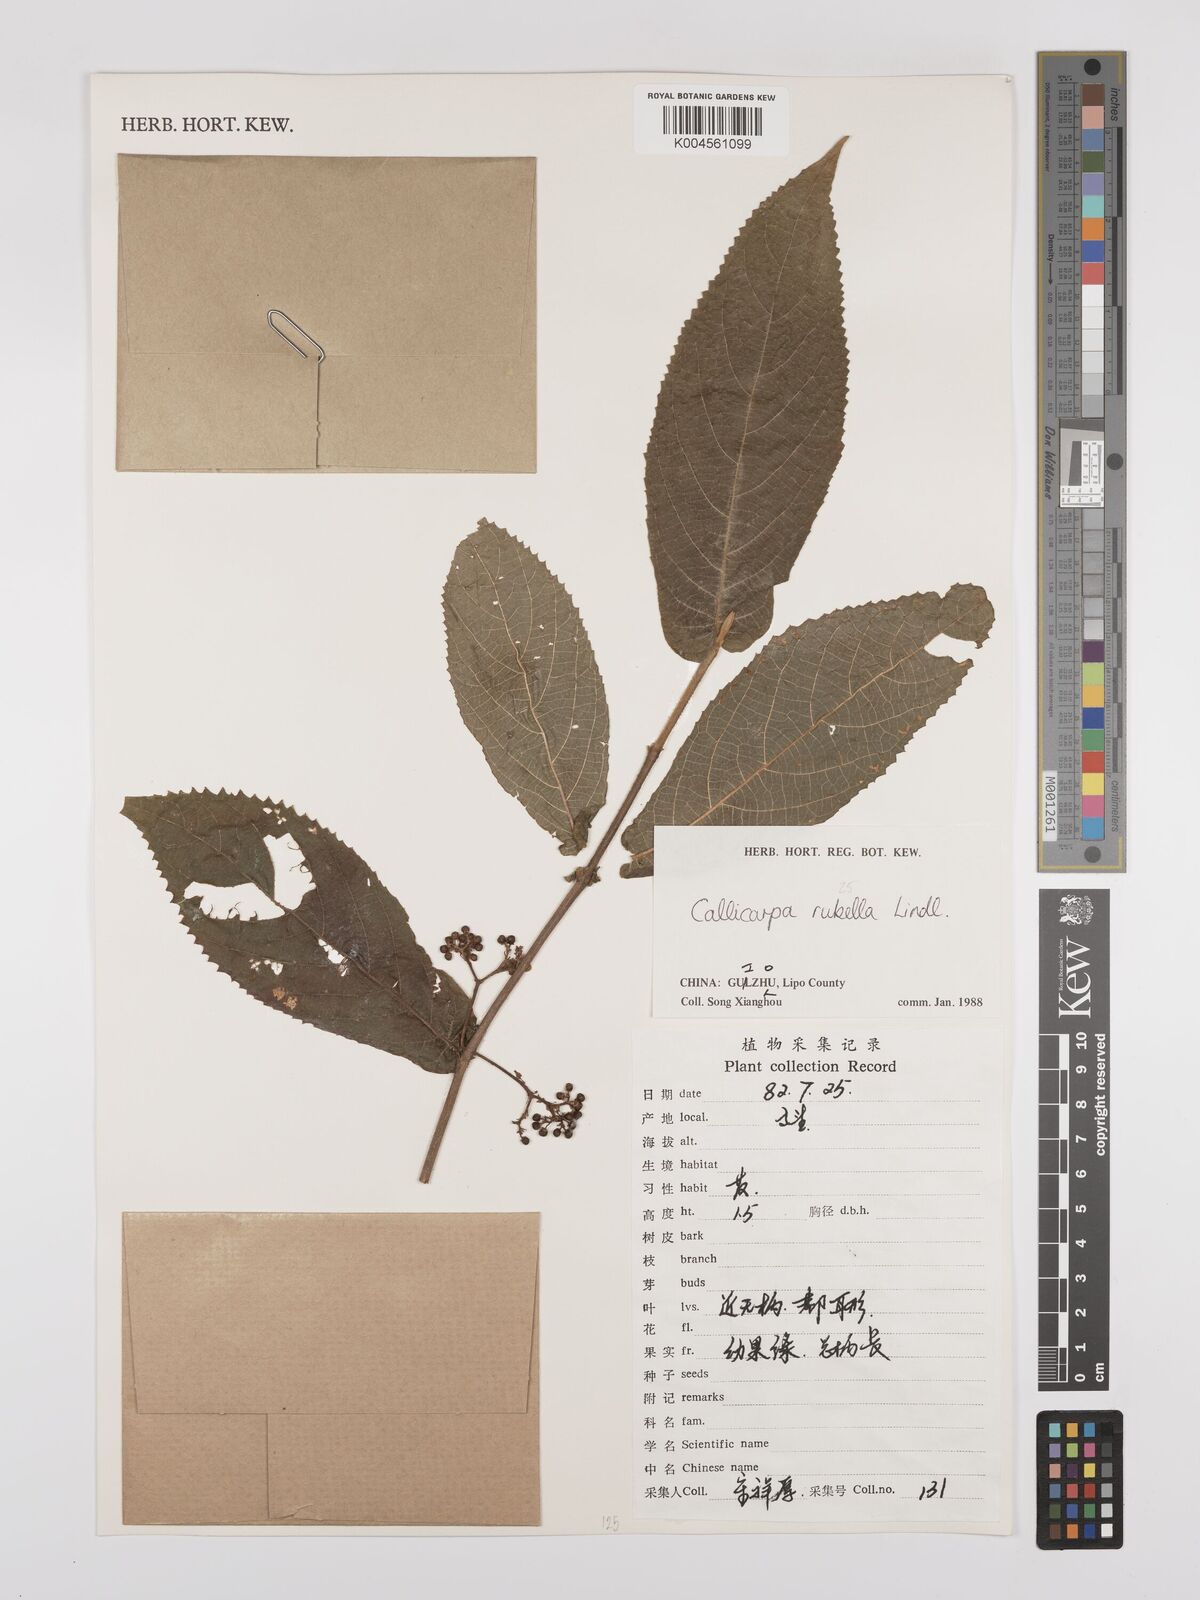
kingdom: Plantae
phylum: Tracheophyta
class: Magnoliopsida
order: Lamiales
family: Lamiaceae
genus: Callicarpa
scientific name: Callicarpa rubella
